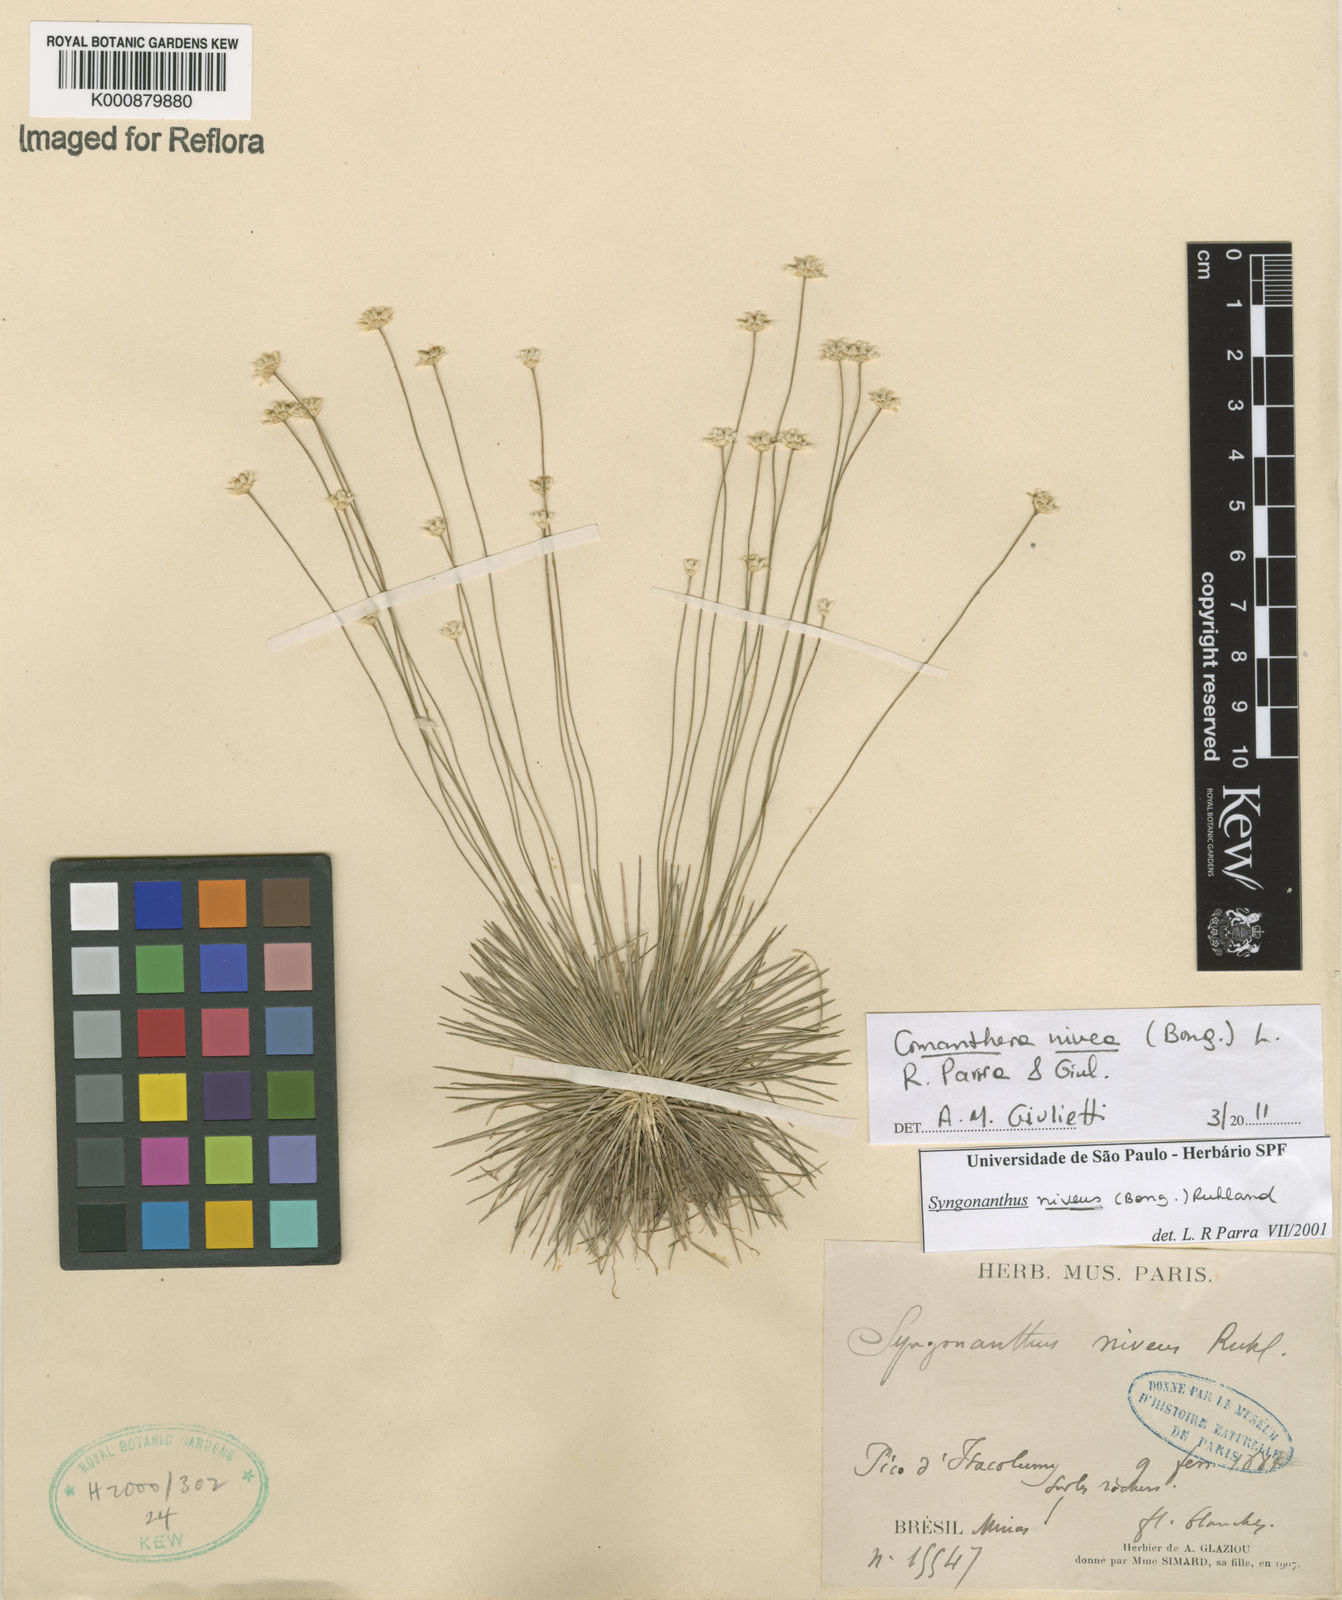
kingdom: Plantae
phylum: Tracheophyta
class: Liliopsida
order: Poales
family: Eriocaulaceae
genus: Comanthera
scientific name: Comanthera nivea
